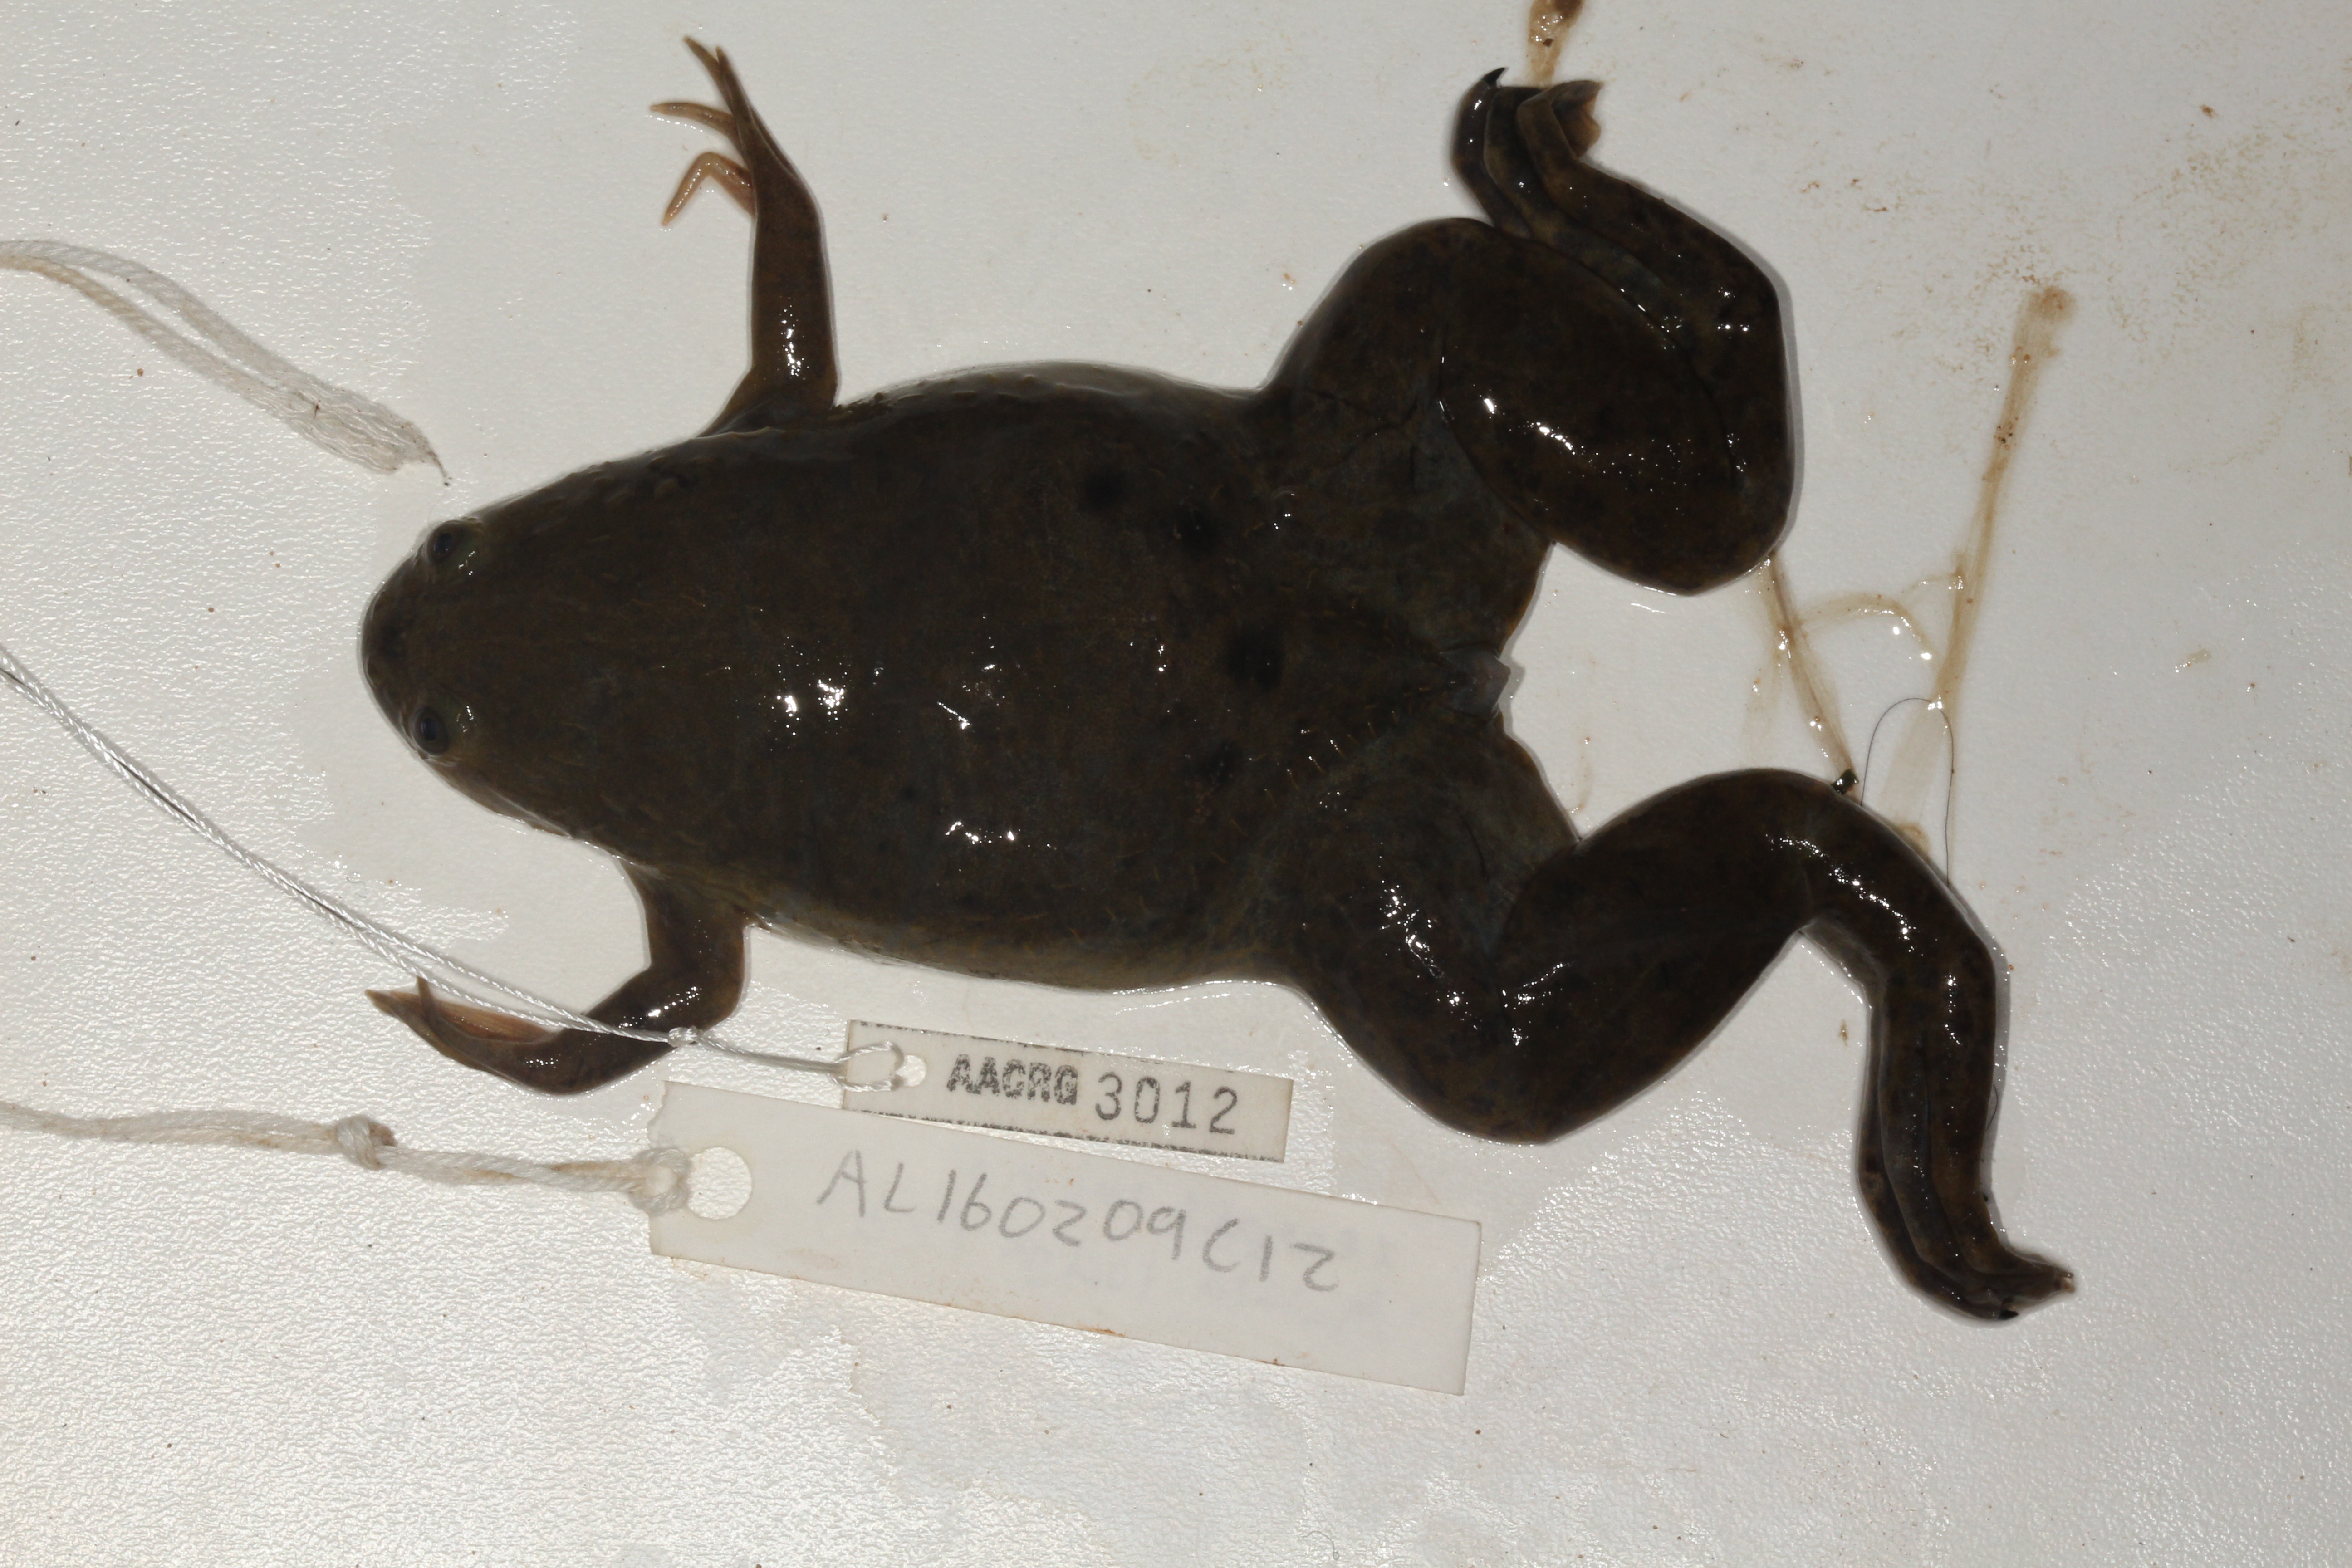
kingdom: Animalia
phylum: Chordata
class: Amphibia
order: Anura
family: Pipidae
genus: Xenopus
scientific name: Xenopus laevis
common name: African clawed frog
